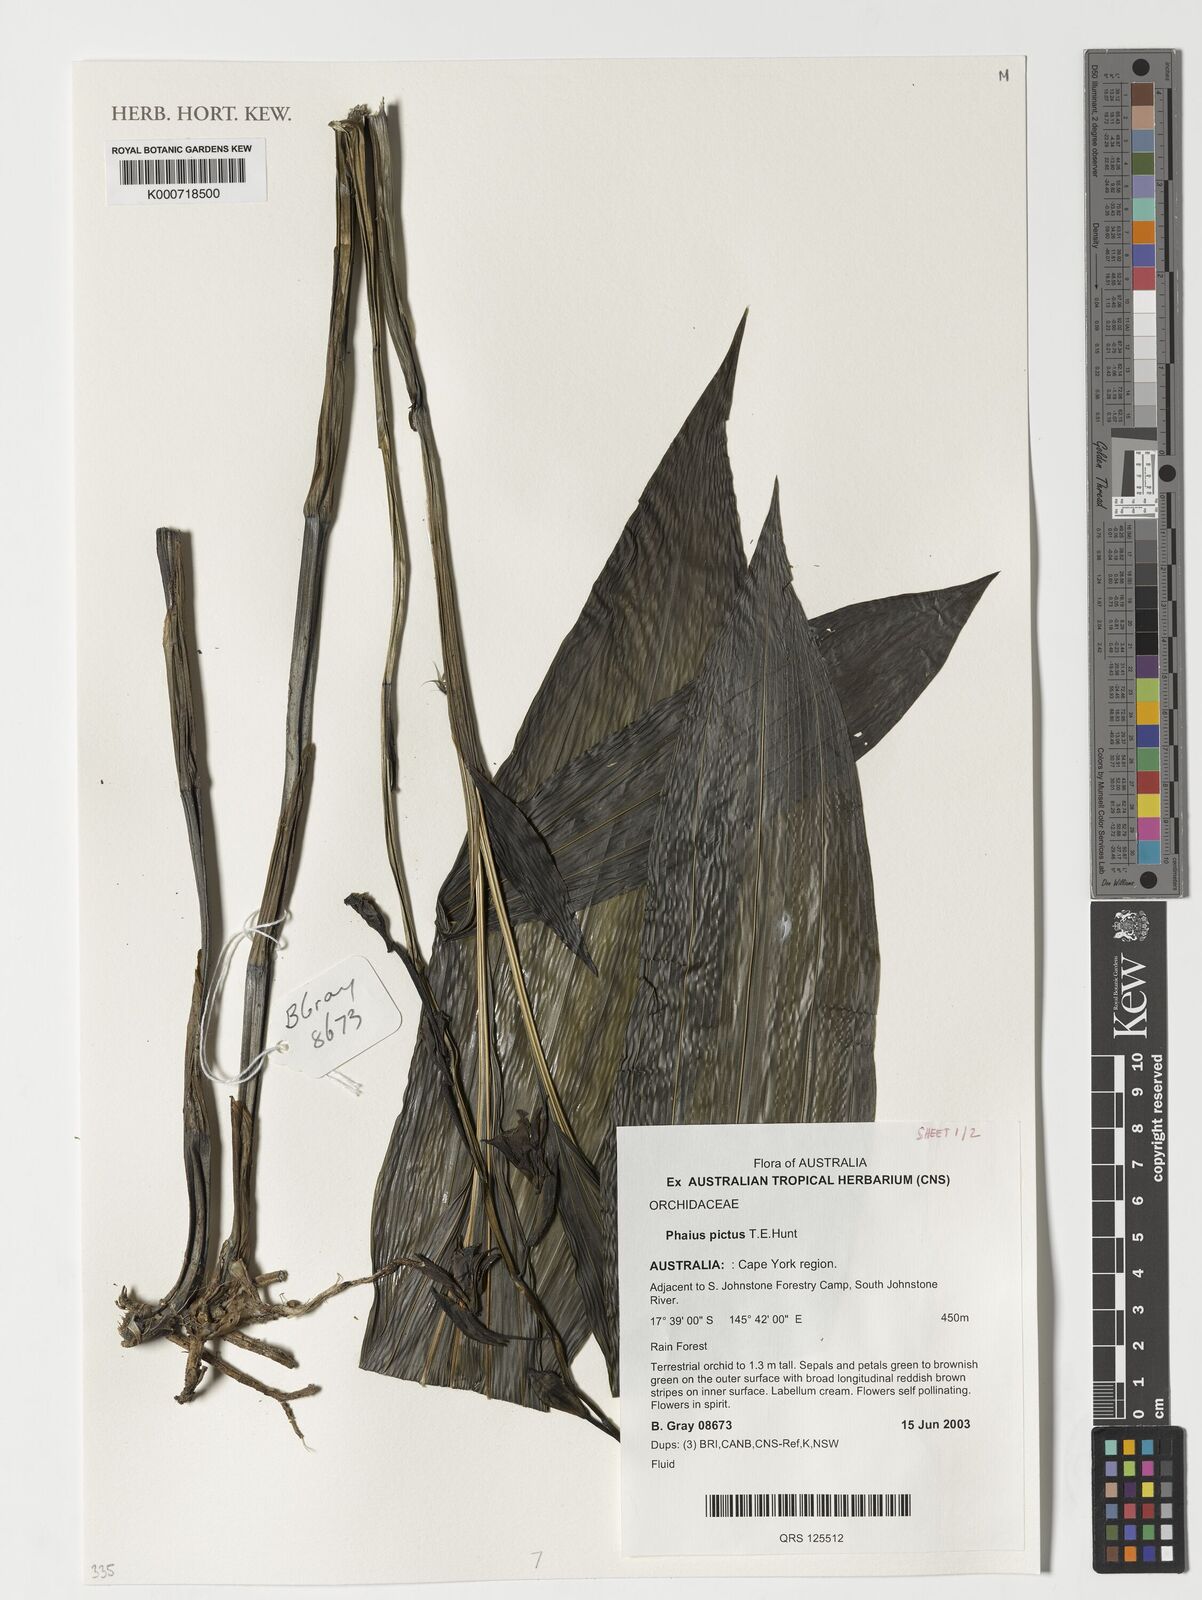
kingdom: Plantae
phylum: Tracheophyta
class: Liliopsida
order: Asparagales
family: Orchidaceae
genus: Calanthe
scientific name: Calanthe robertsii
